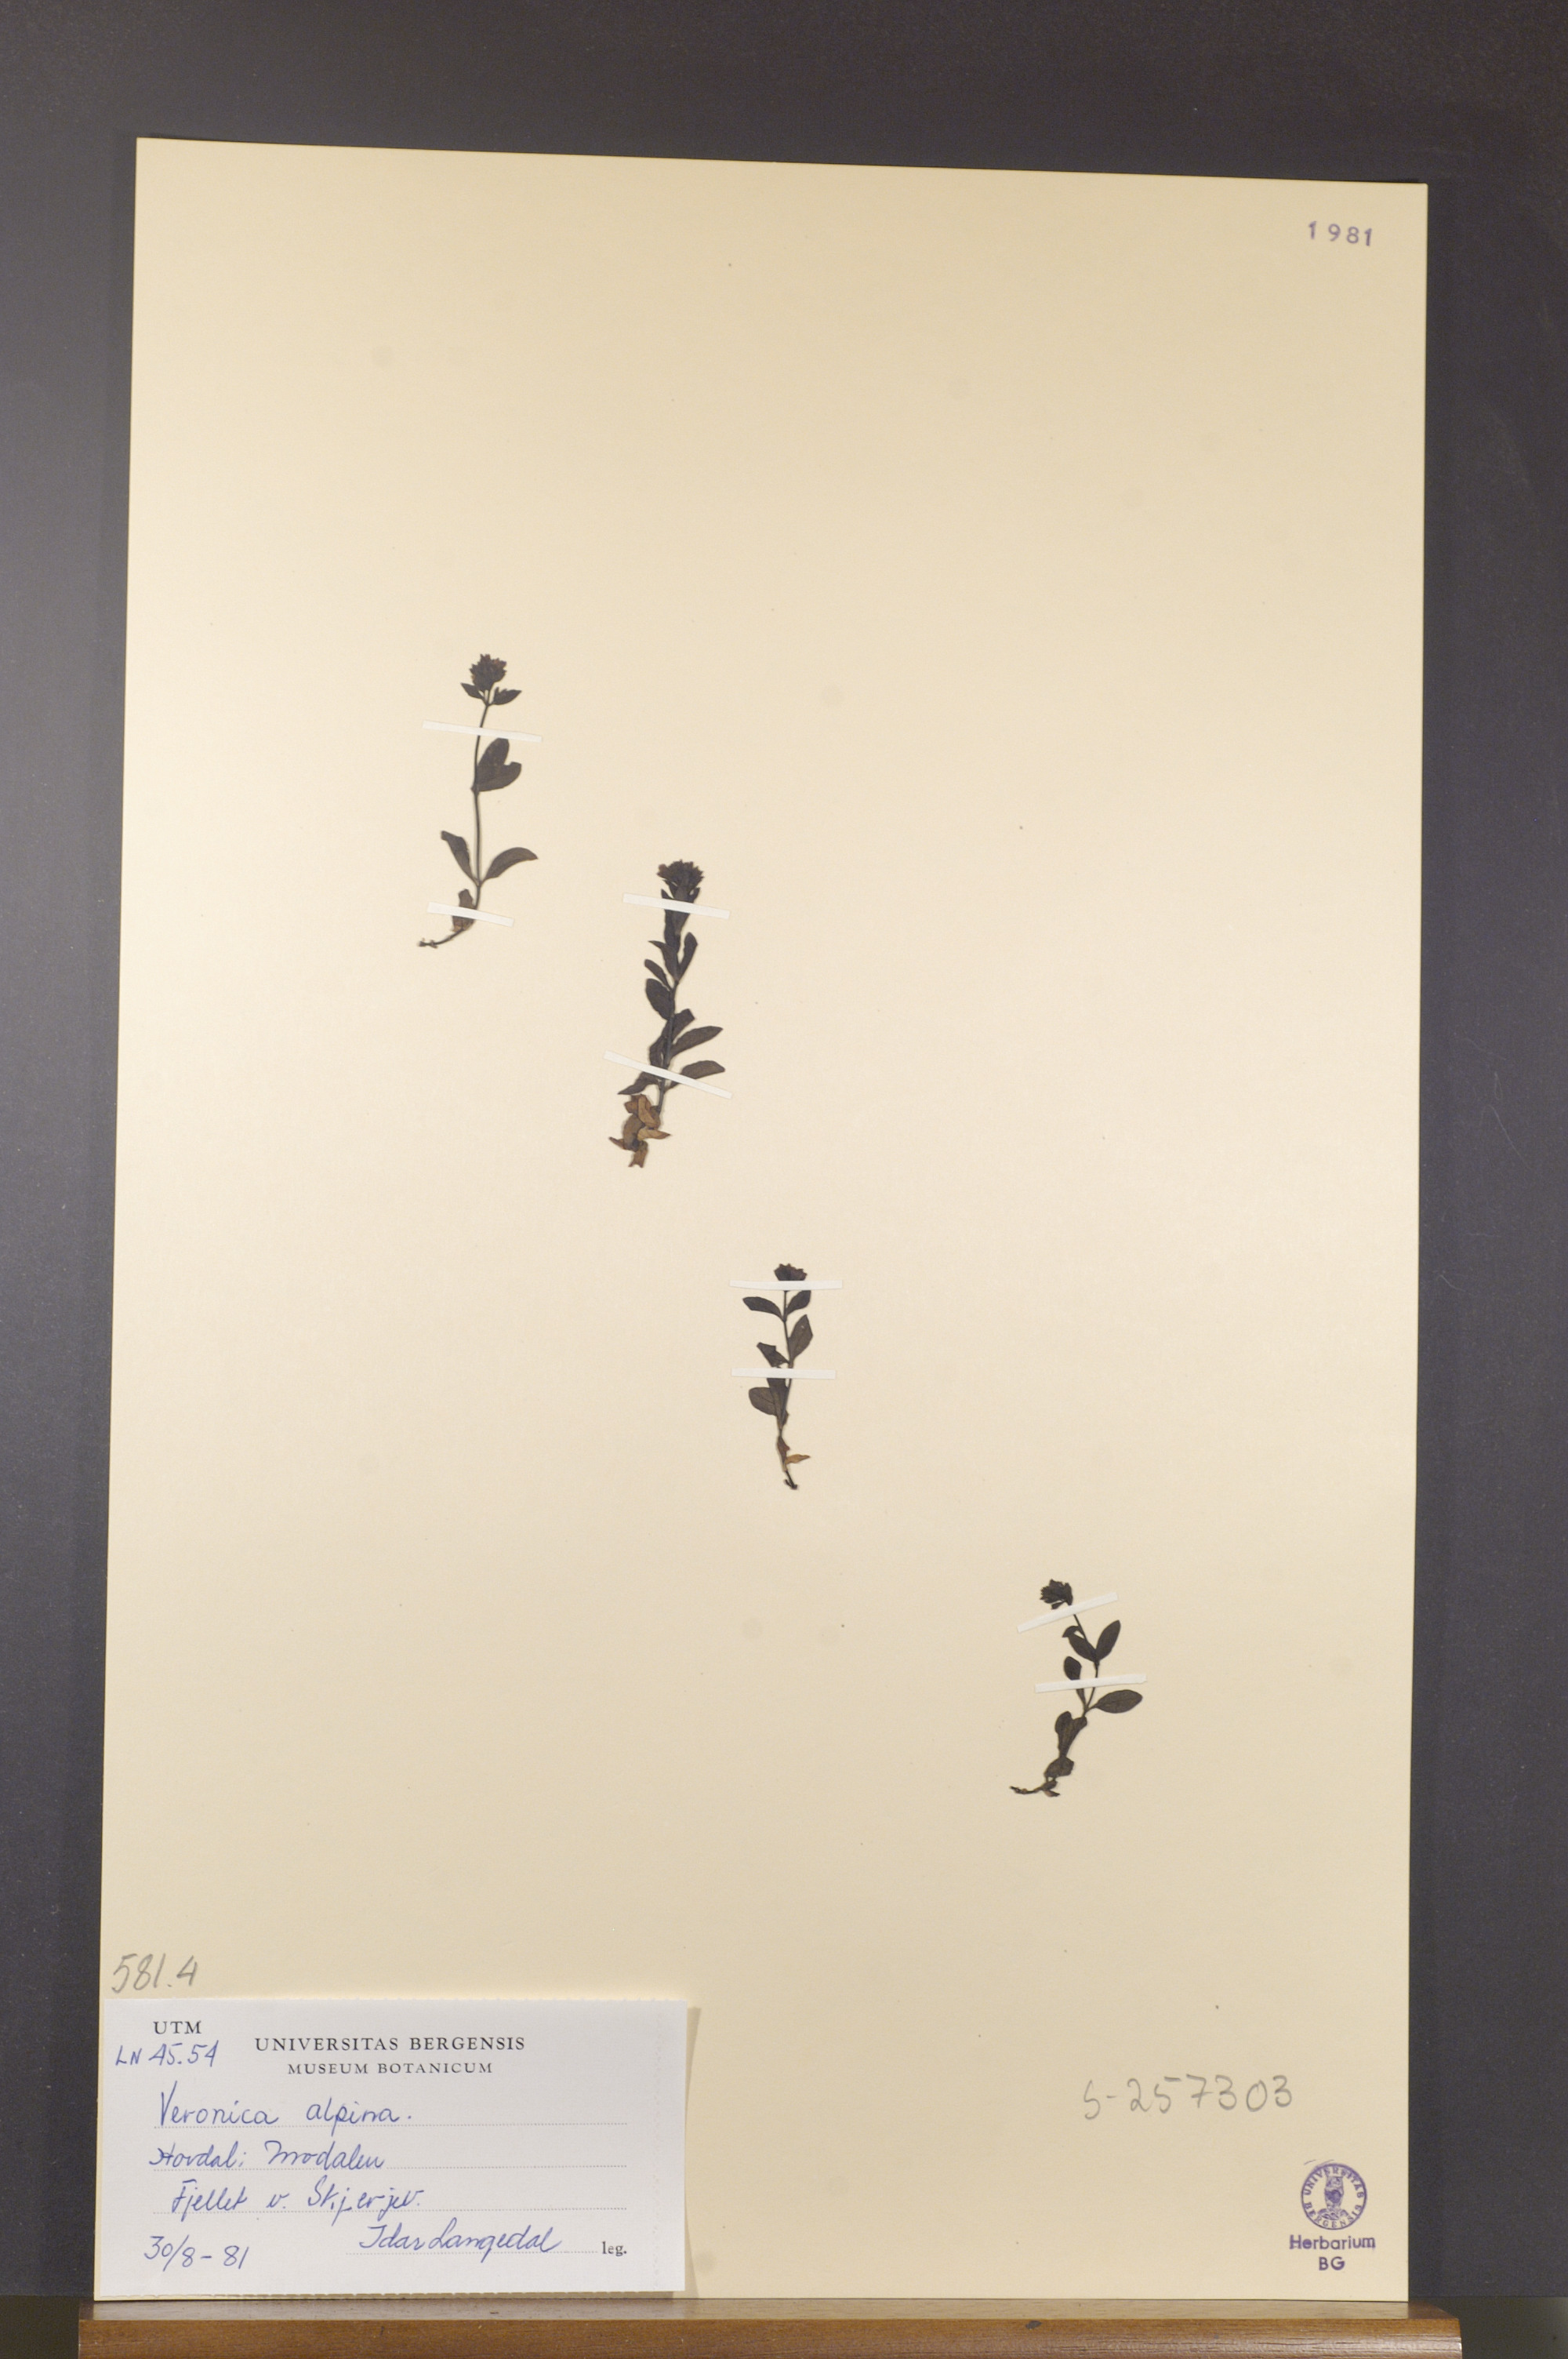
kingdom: Plantae
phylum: Tracheophyta
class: Magnoliopsida
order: Lamiales
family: Plantaginaceae
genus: Veronica
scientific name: Veronica alpina
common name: Alpine speedwell
